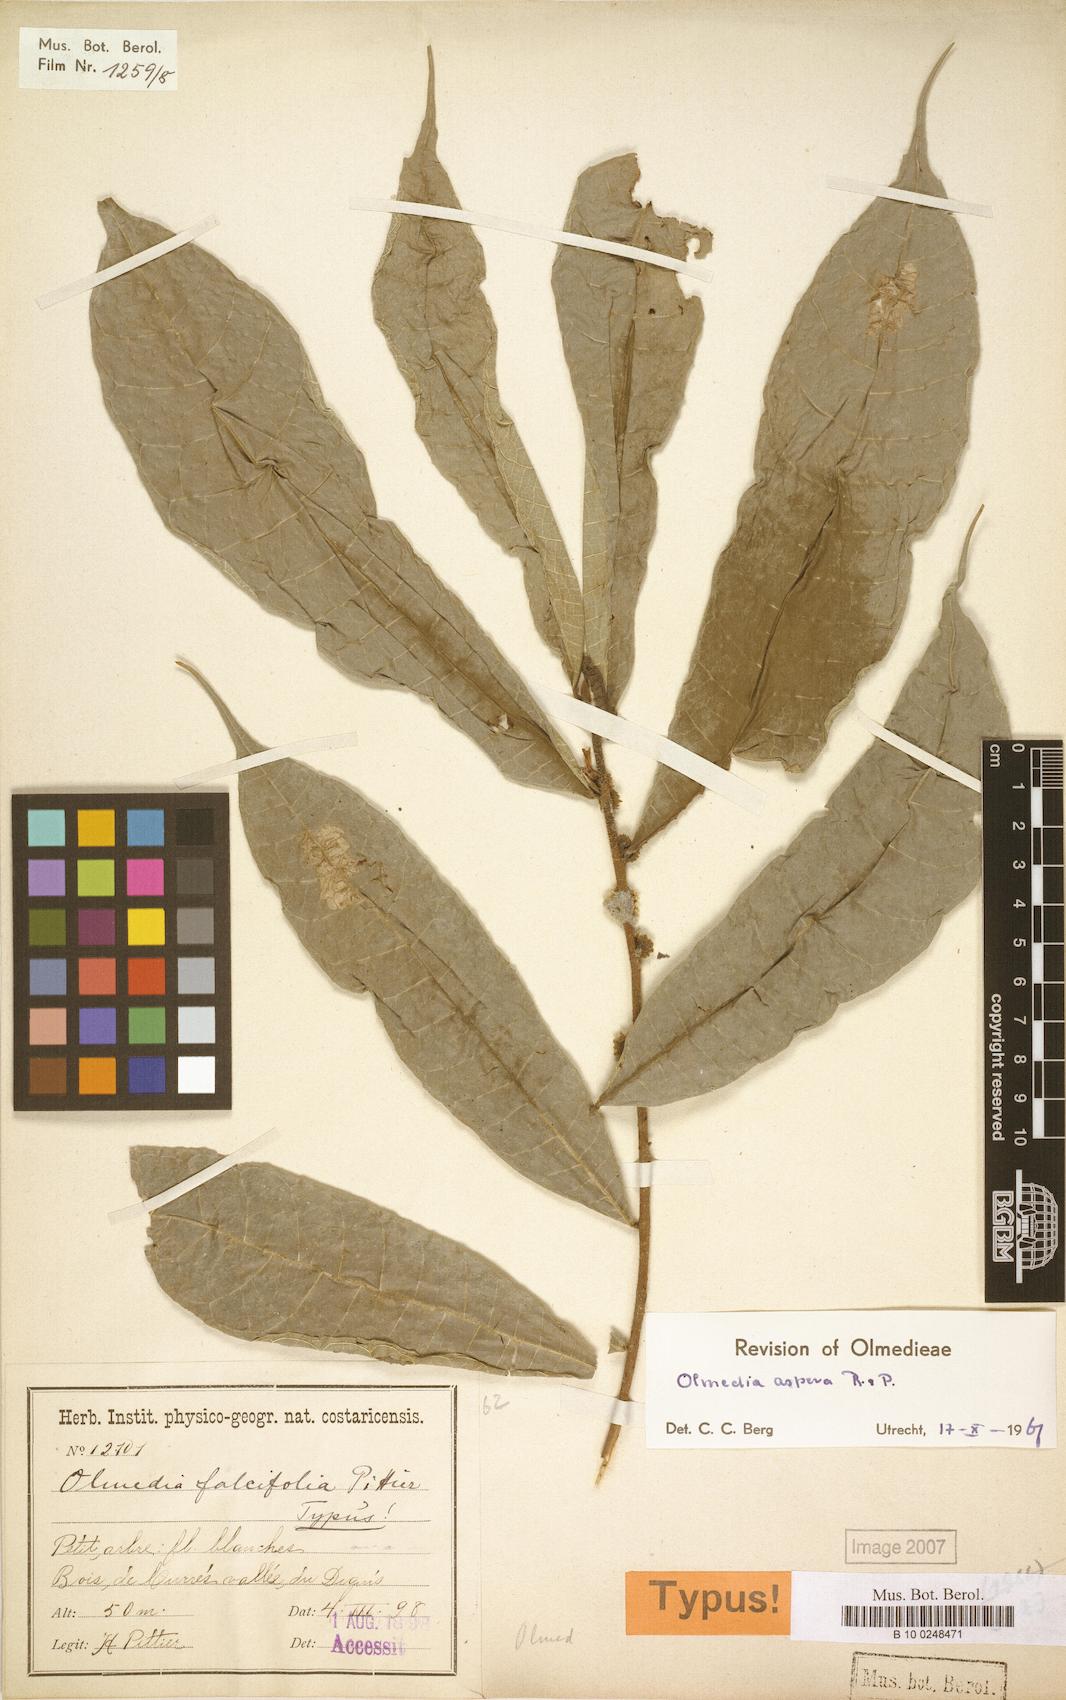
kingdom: Plantae
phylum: Tracheophyta
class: Magnoliopsida
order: Rosales
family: Moraceae
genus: Olmedia
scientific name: Olmedia aspera
